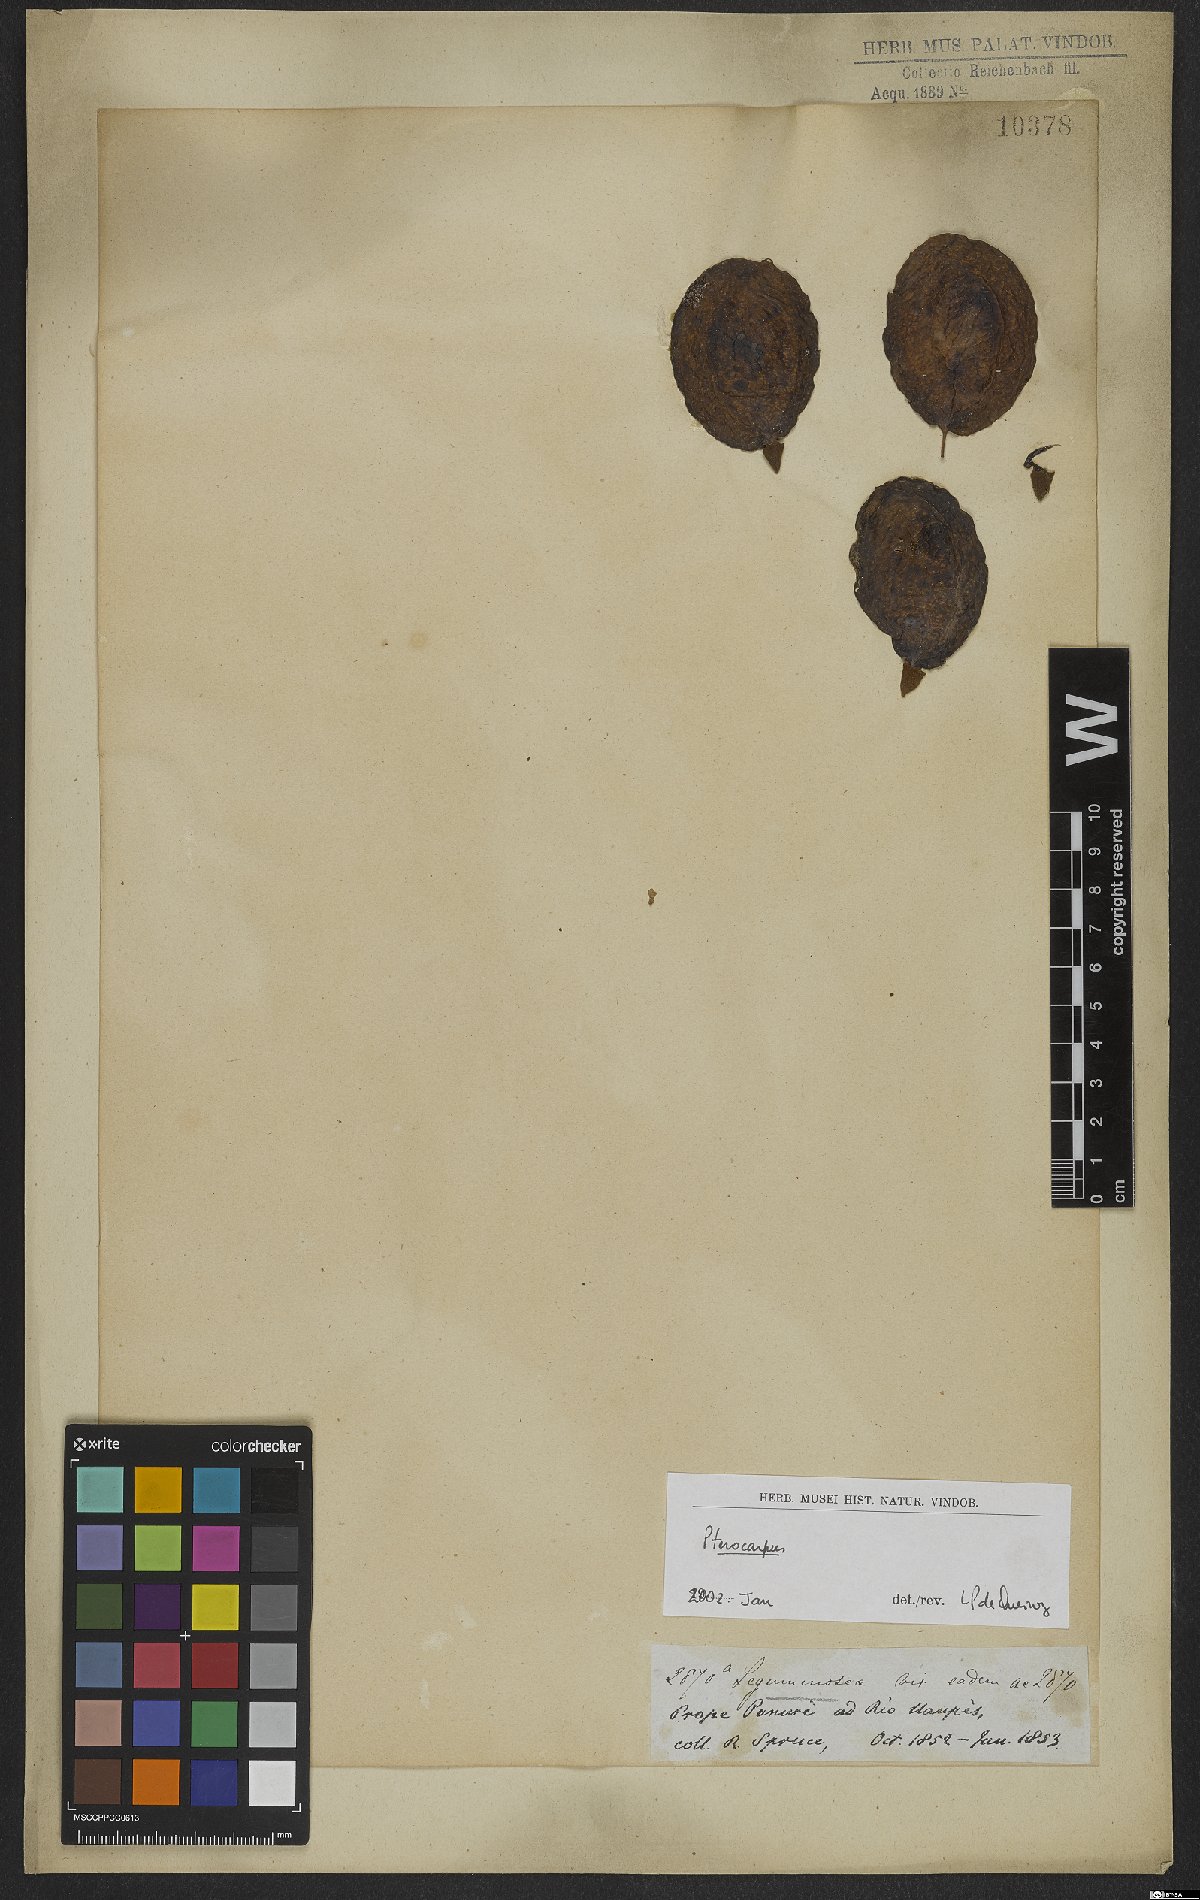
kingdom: Plantae
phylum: Tracheophyta
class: Magnoliopsida
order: Fabales
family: Fabaceae
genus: Pterocarpus
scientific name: Pterocarpus
